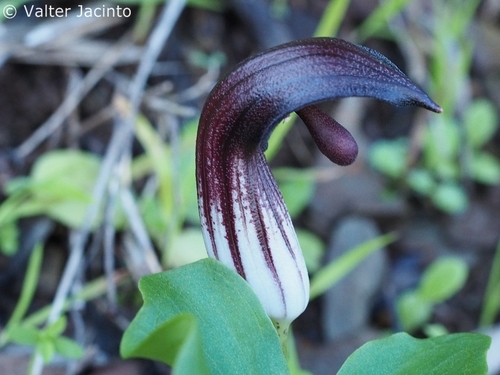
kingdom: Plantae
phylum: Tracheophyta
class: Liliopsida
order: Alismatales
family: Araceae
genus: Arisarum
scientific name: Arisarum simorrhinum
